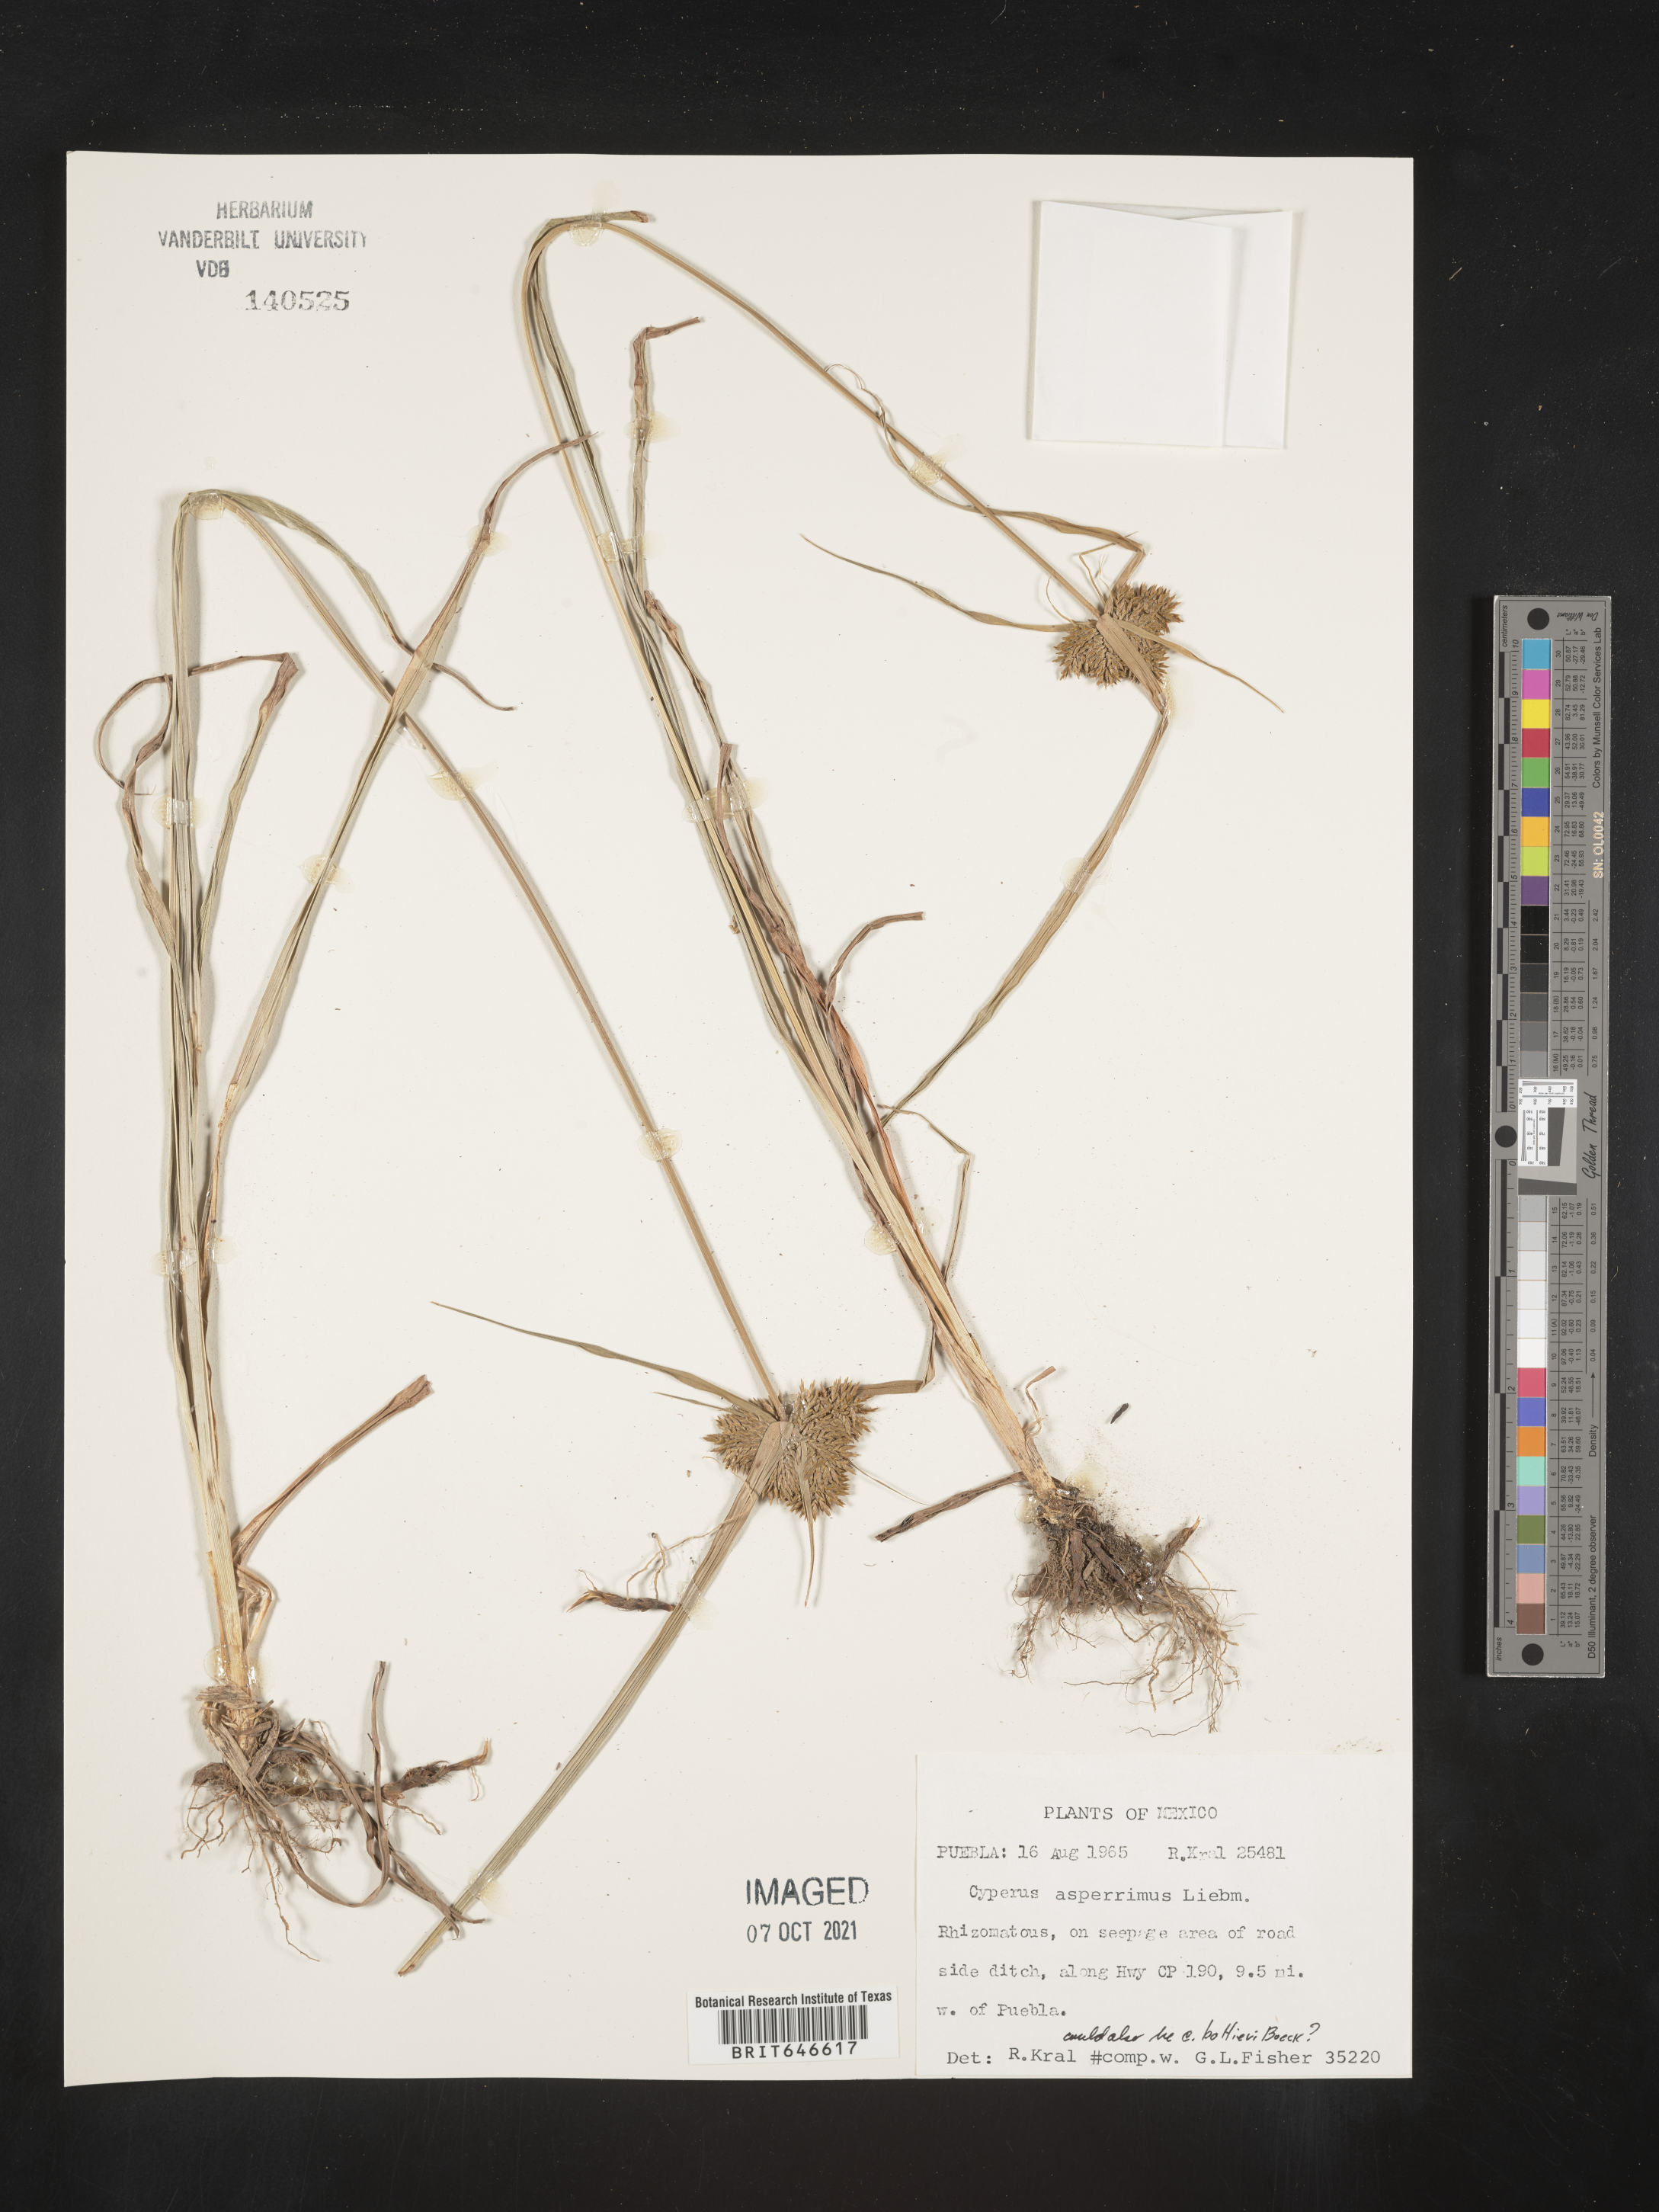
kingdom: Plantae
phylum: Tracheophyta
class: Liliopsida
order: Poales
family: Cyperaceae
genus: Cyperus
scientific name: Cyperus
